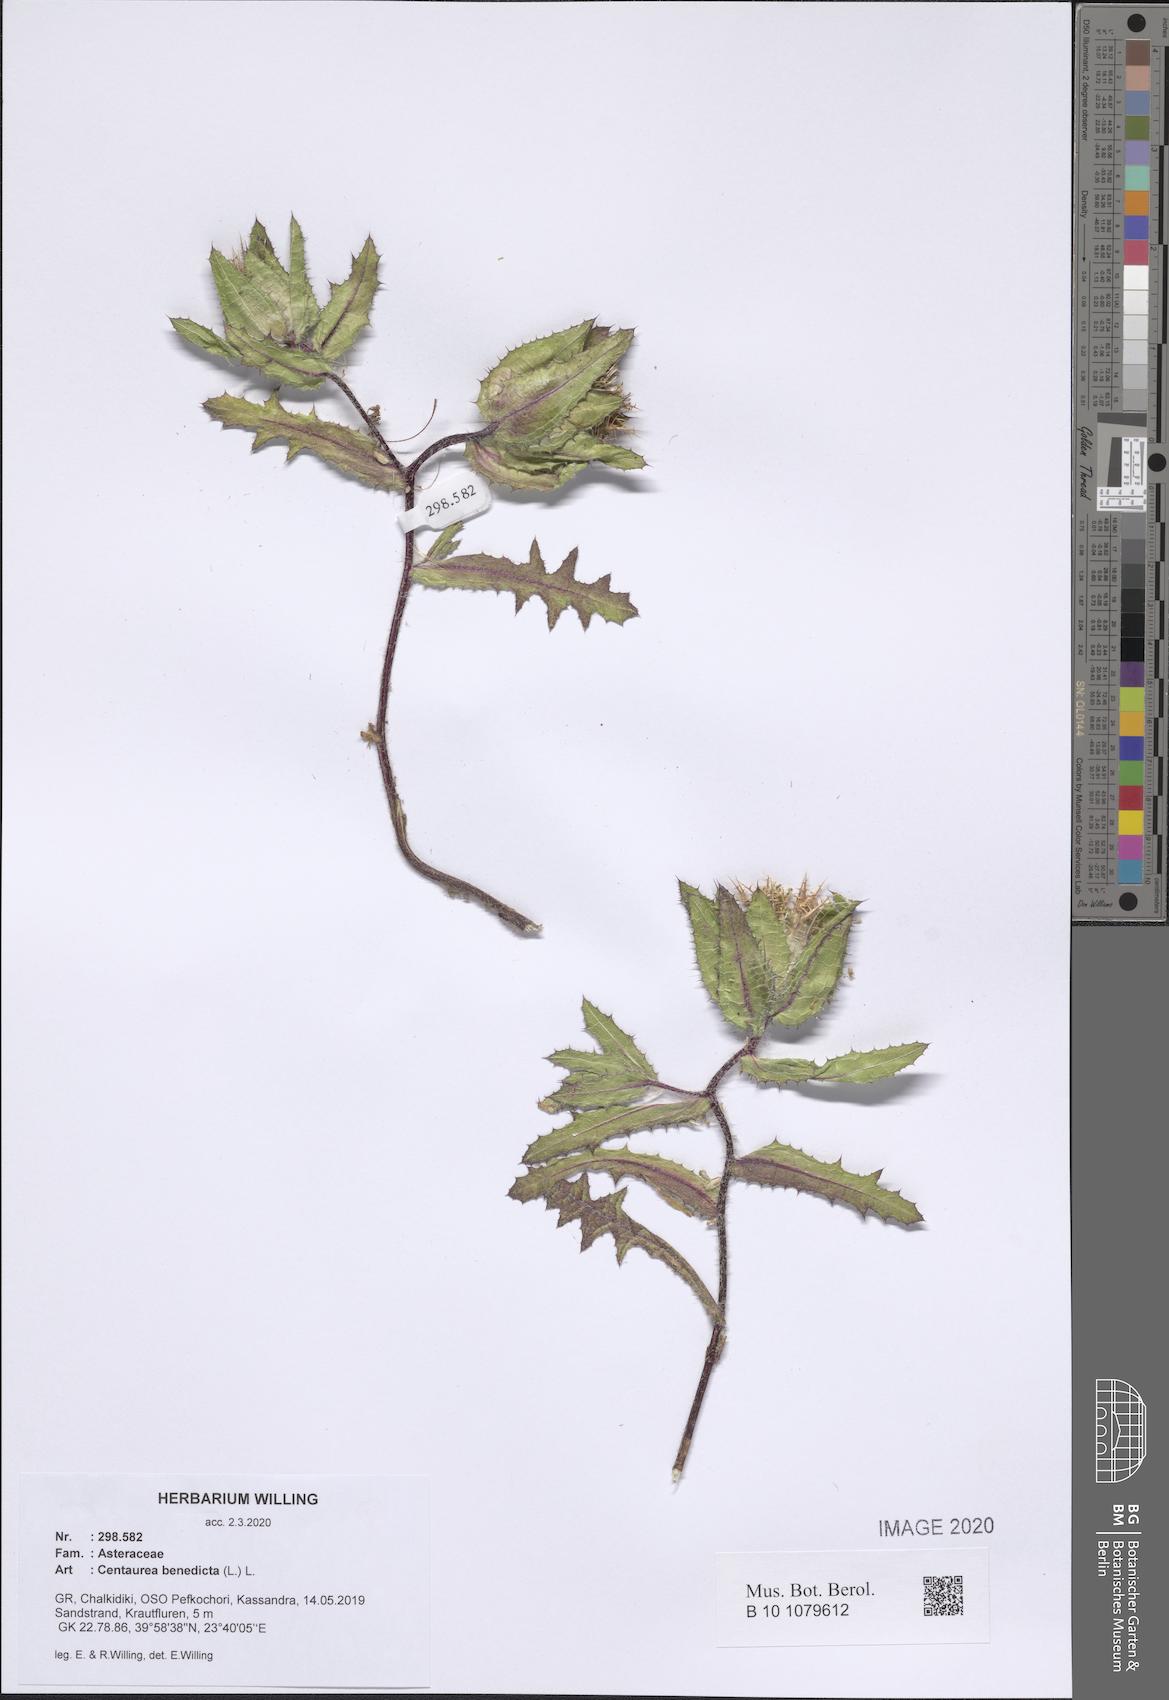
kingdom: Plantae
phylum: Tracheophyta
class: Magnoliopsida
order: Asterales
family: Asteraceae
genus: Centaurea
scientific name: Centaurea benedicta
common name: Blessed thistle
